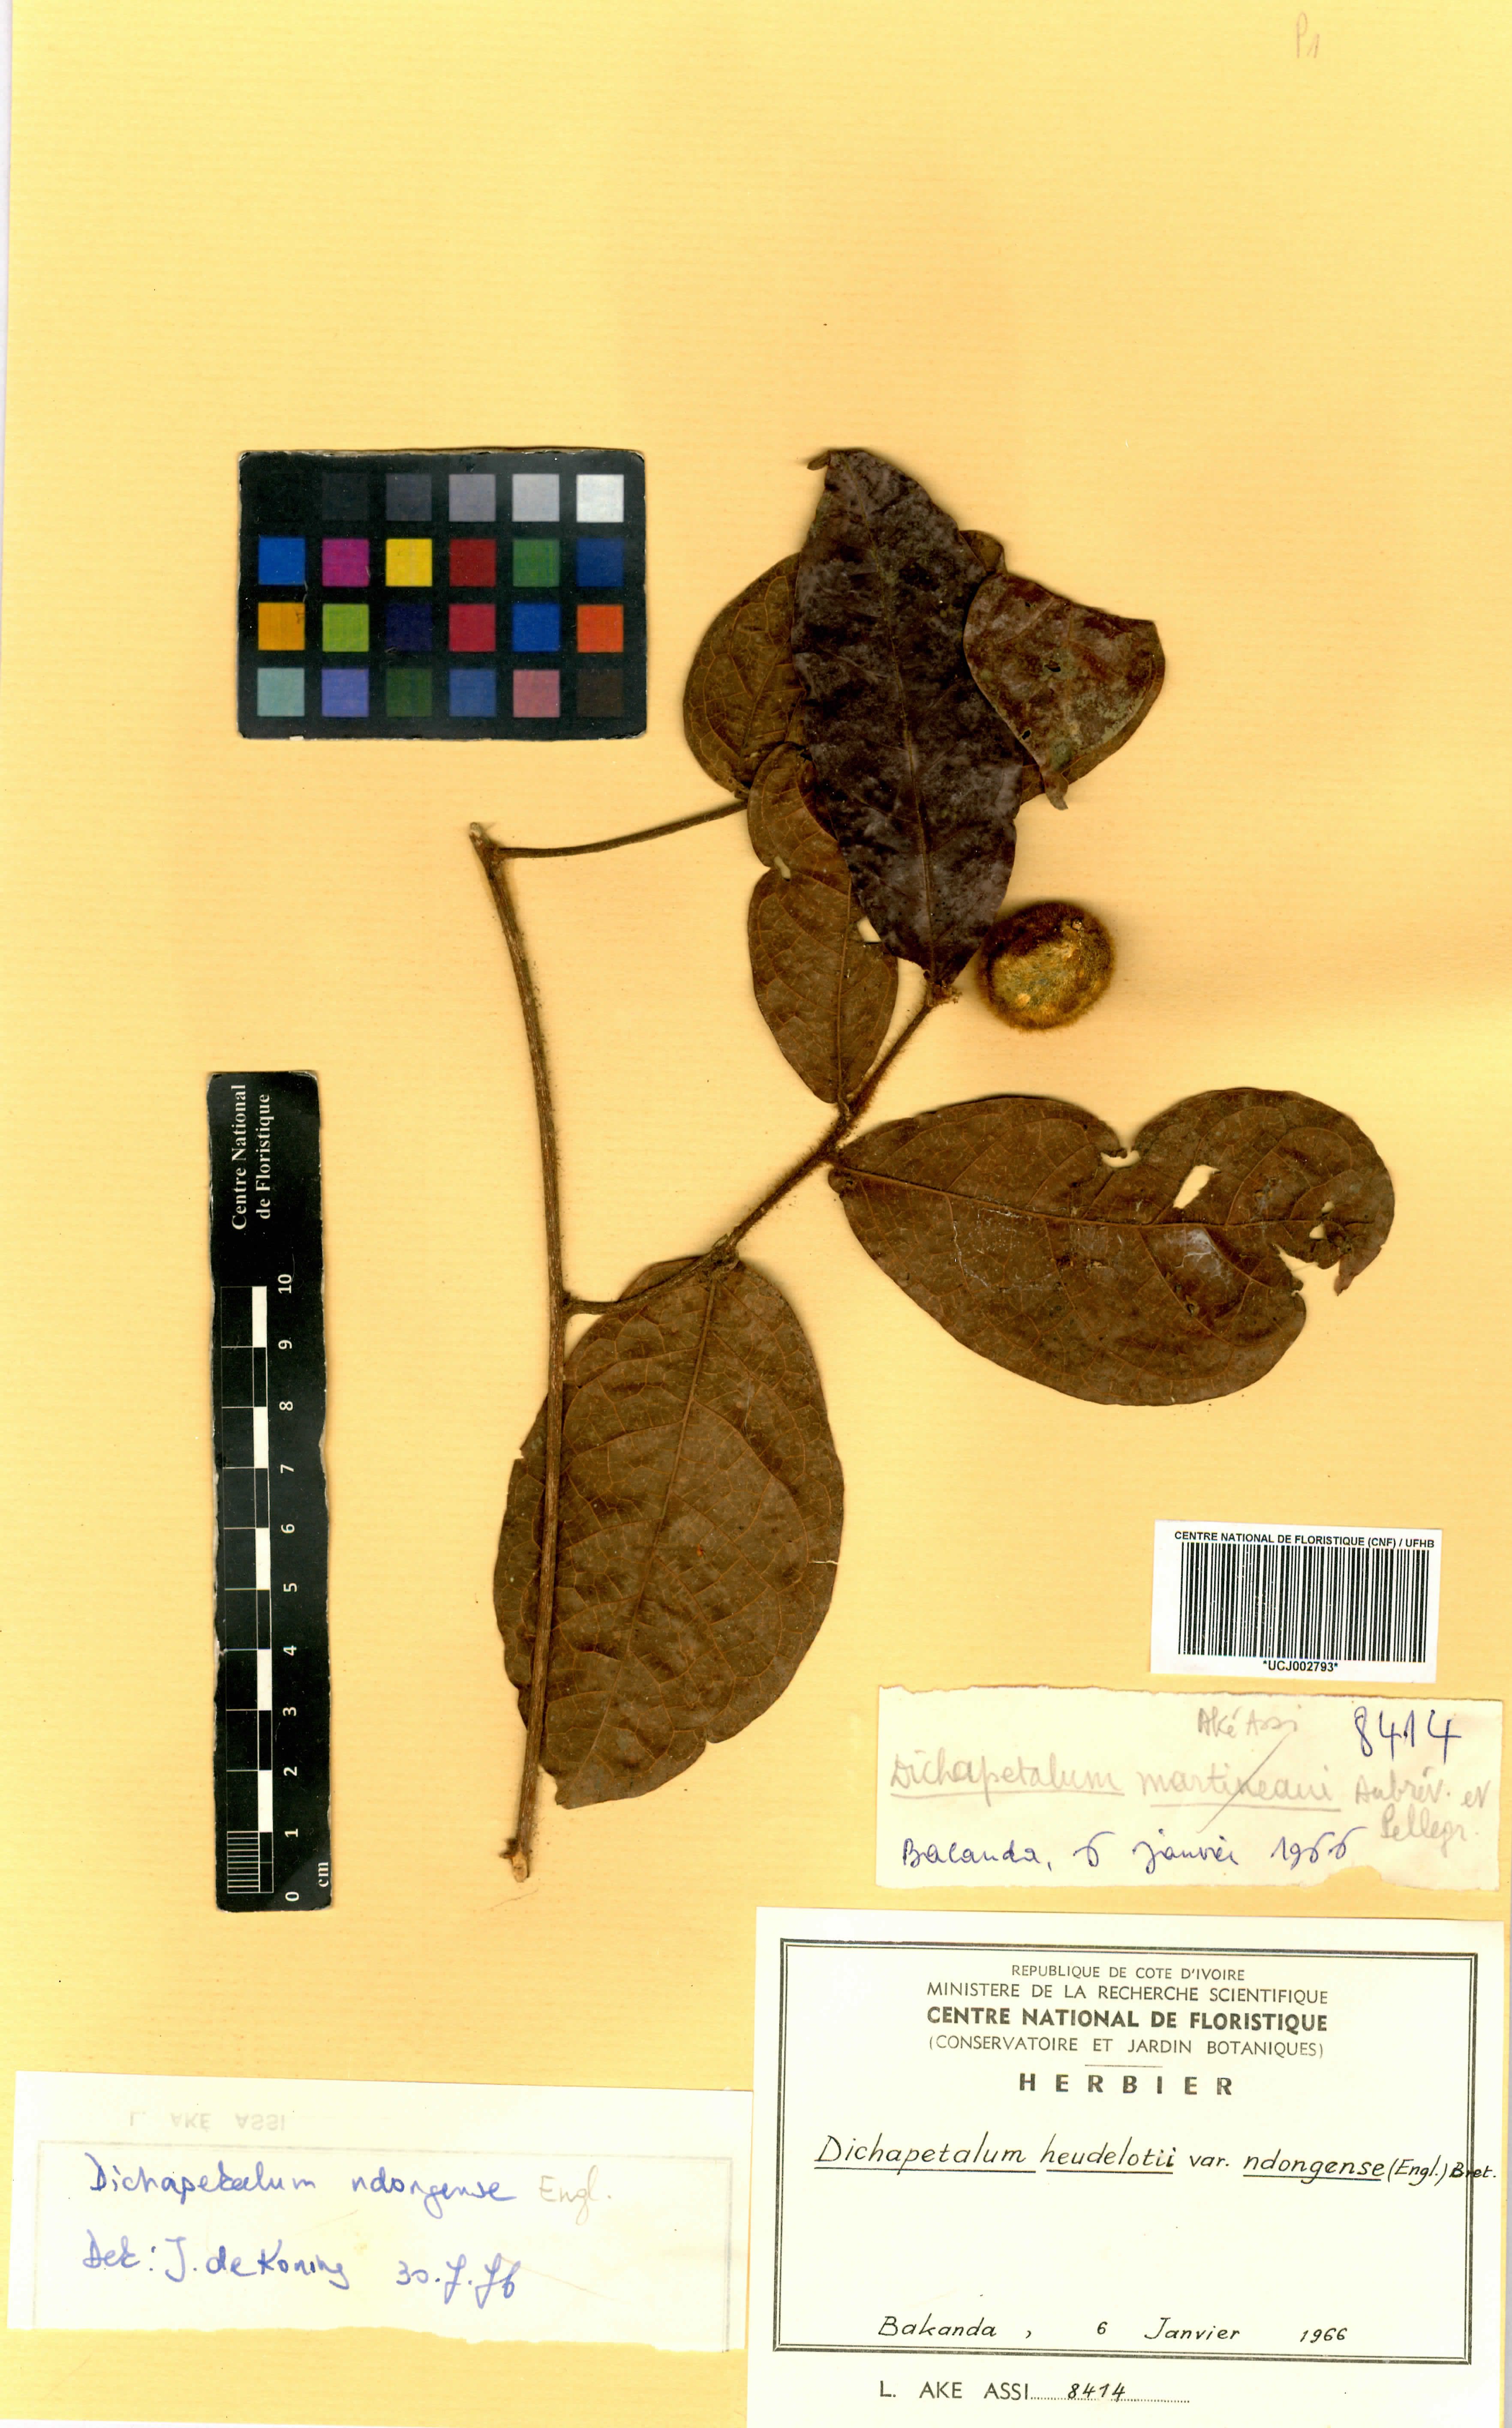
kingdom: Plantae
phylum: Tracheophyta
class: Magnoliopsida
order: Malpighiales
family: Dichapetalaceae
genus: Dichapetalum
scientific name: Dichapetalum heudelotii
